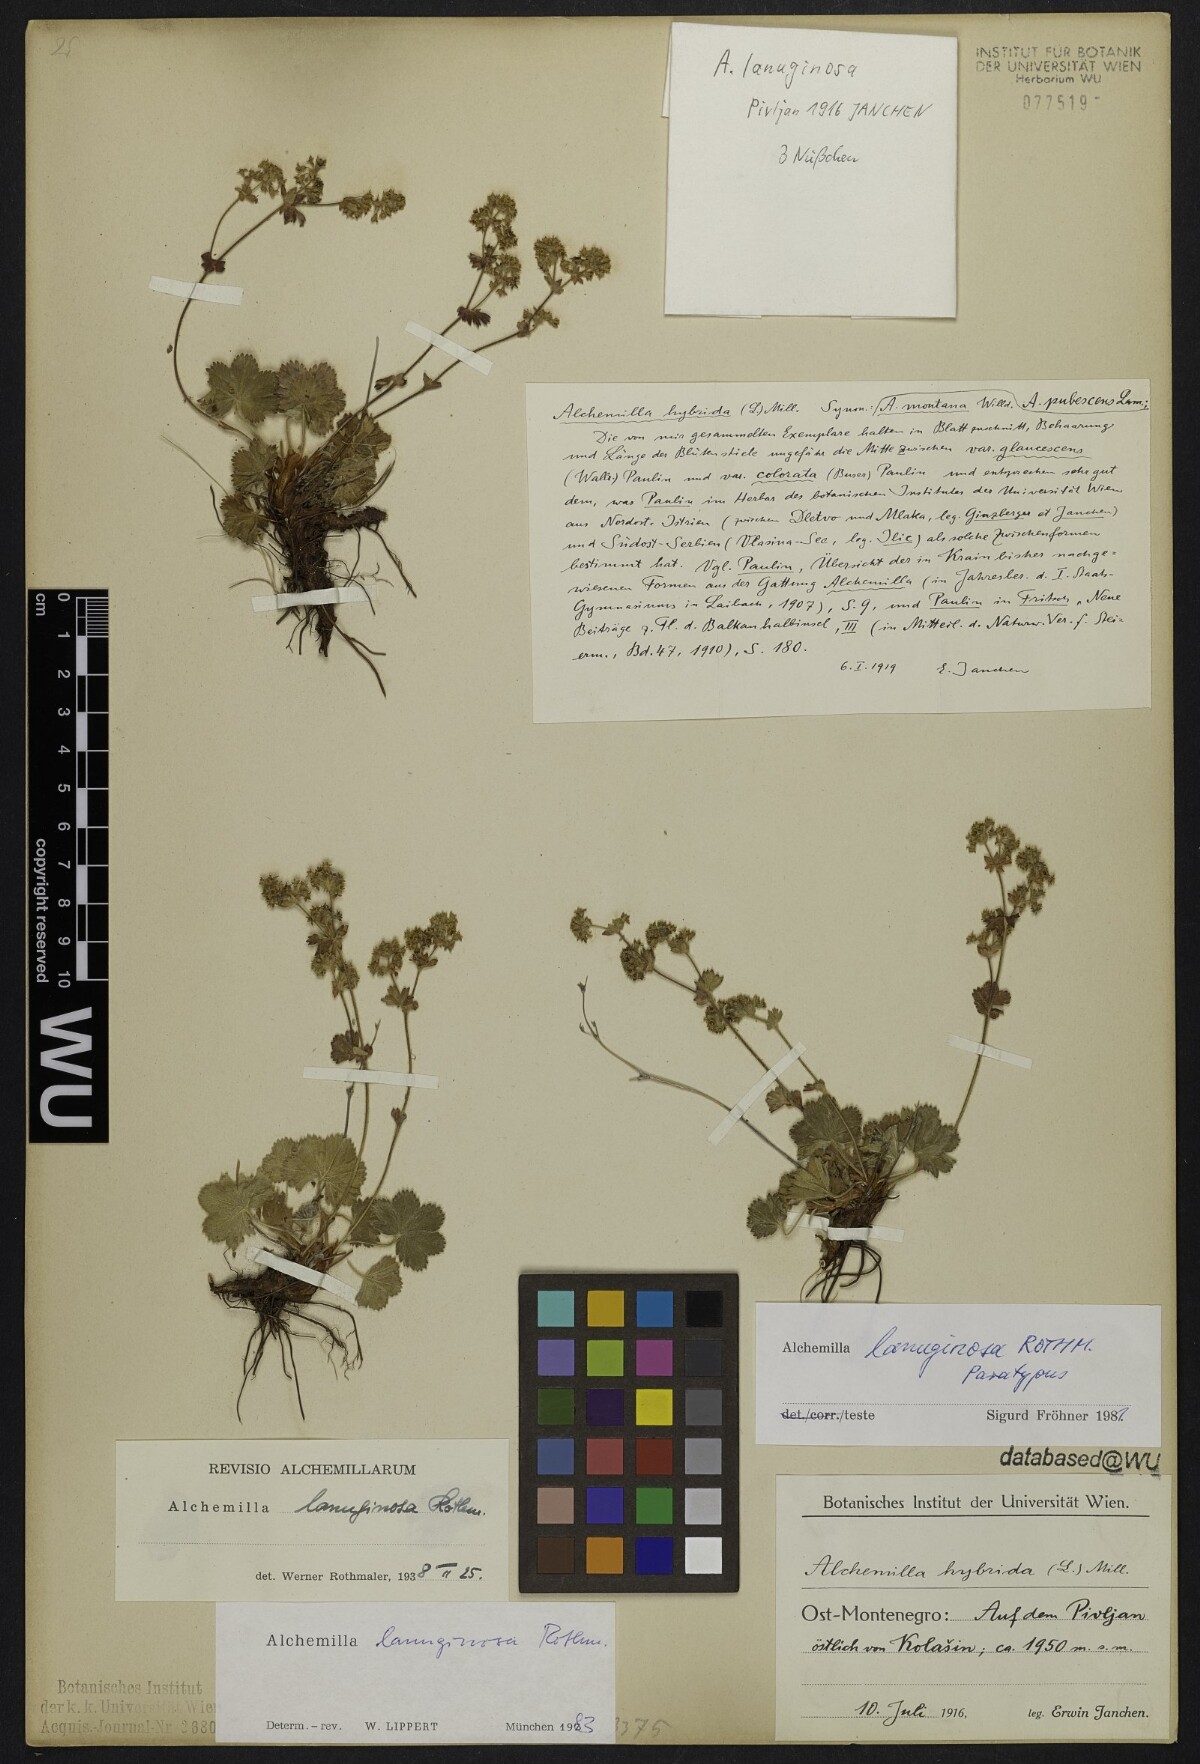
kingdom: Plantae
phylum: Tracheophyta
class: Magnoliopsida
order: Rosales
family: Rosaceae
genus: Alchemilla
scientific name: Alchemilla lanuginosa
